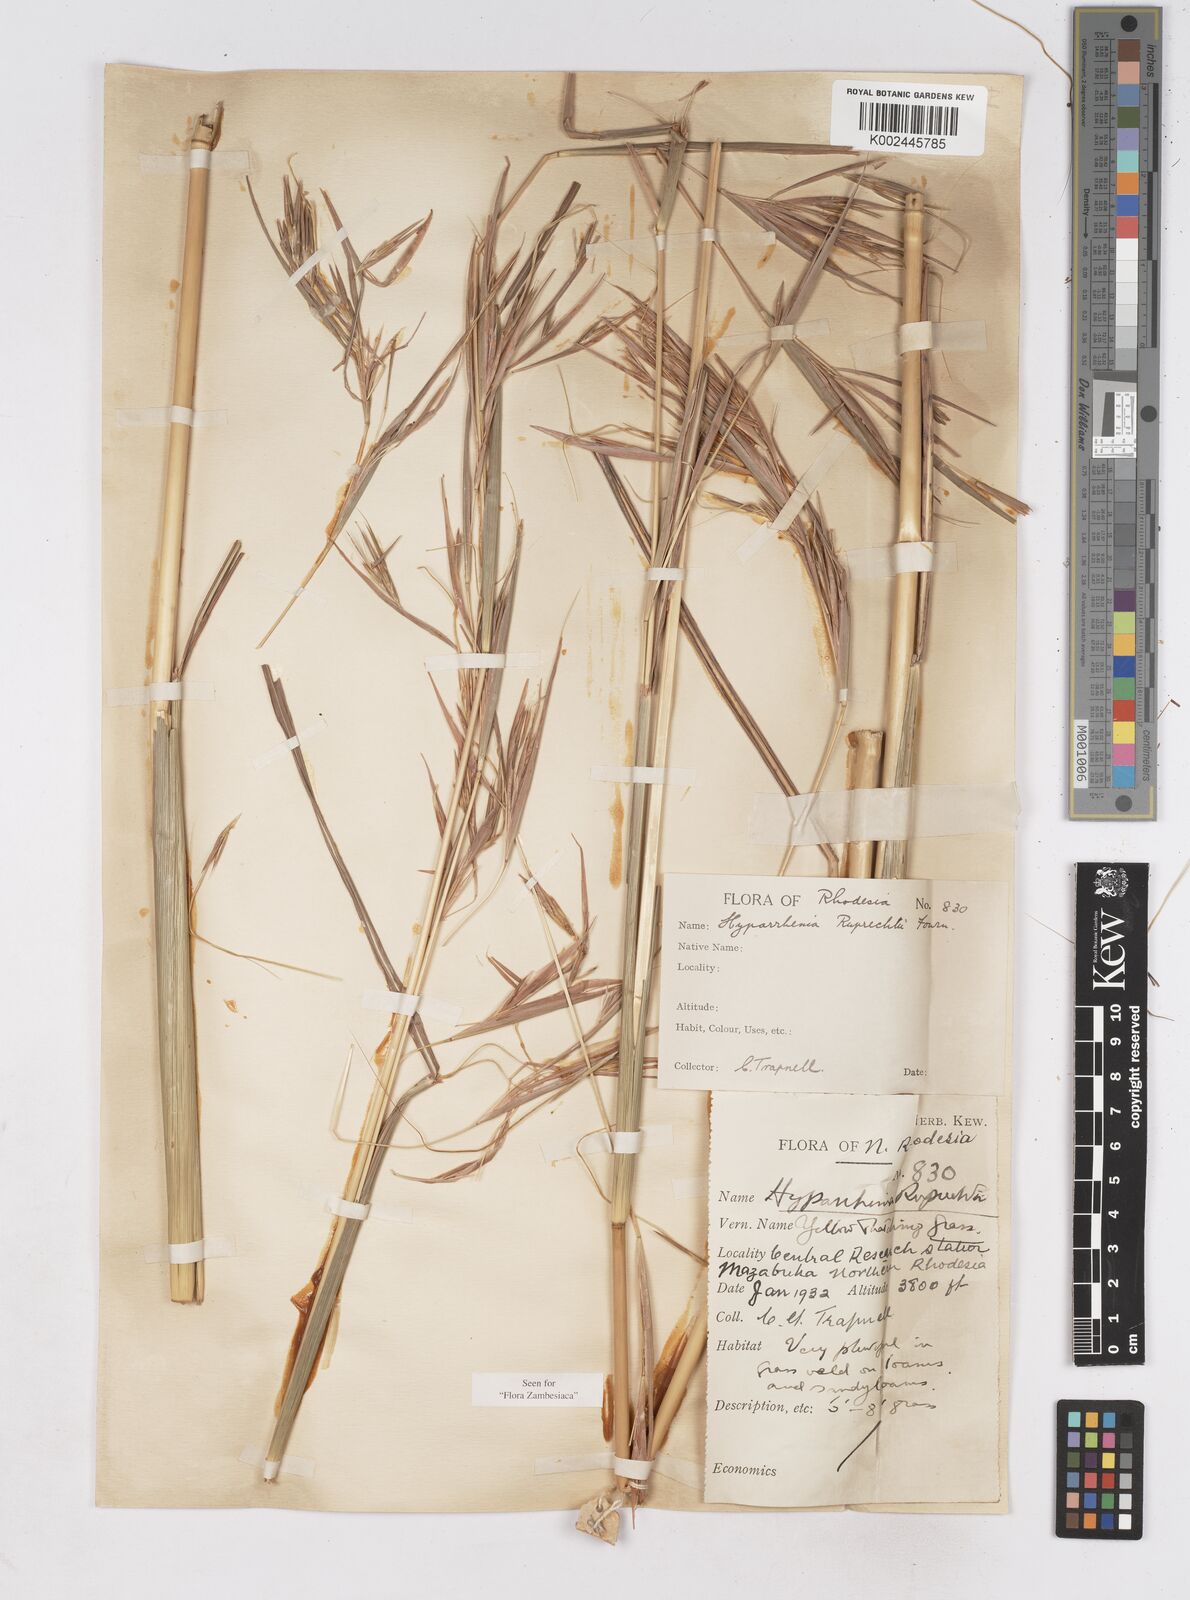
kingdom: Plantae
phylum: Tracheophyta
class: Liliopsida
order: Poales
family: Poaceae
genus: Hyperthelia
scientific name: Hyperthelia dissoluta
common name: Yellow thatching grass
